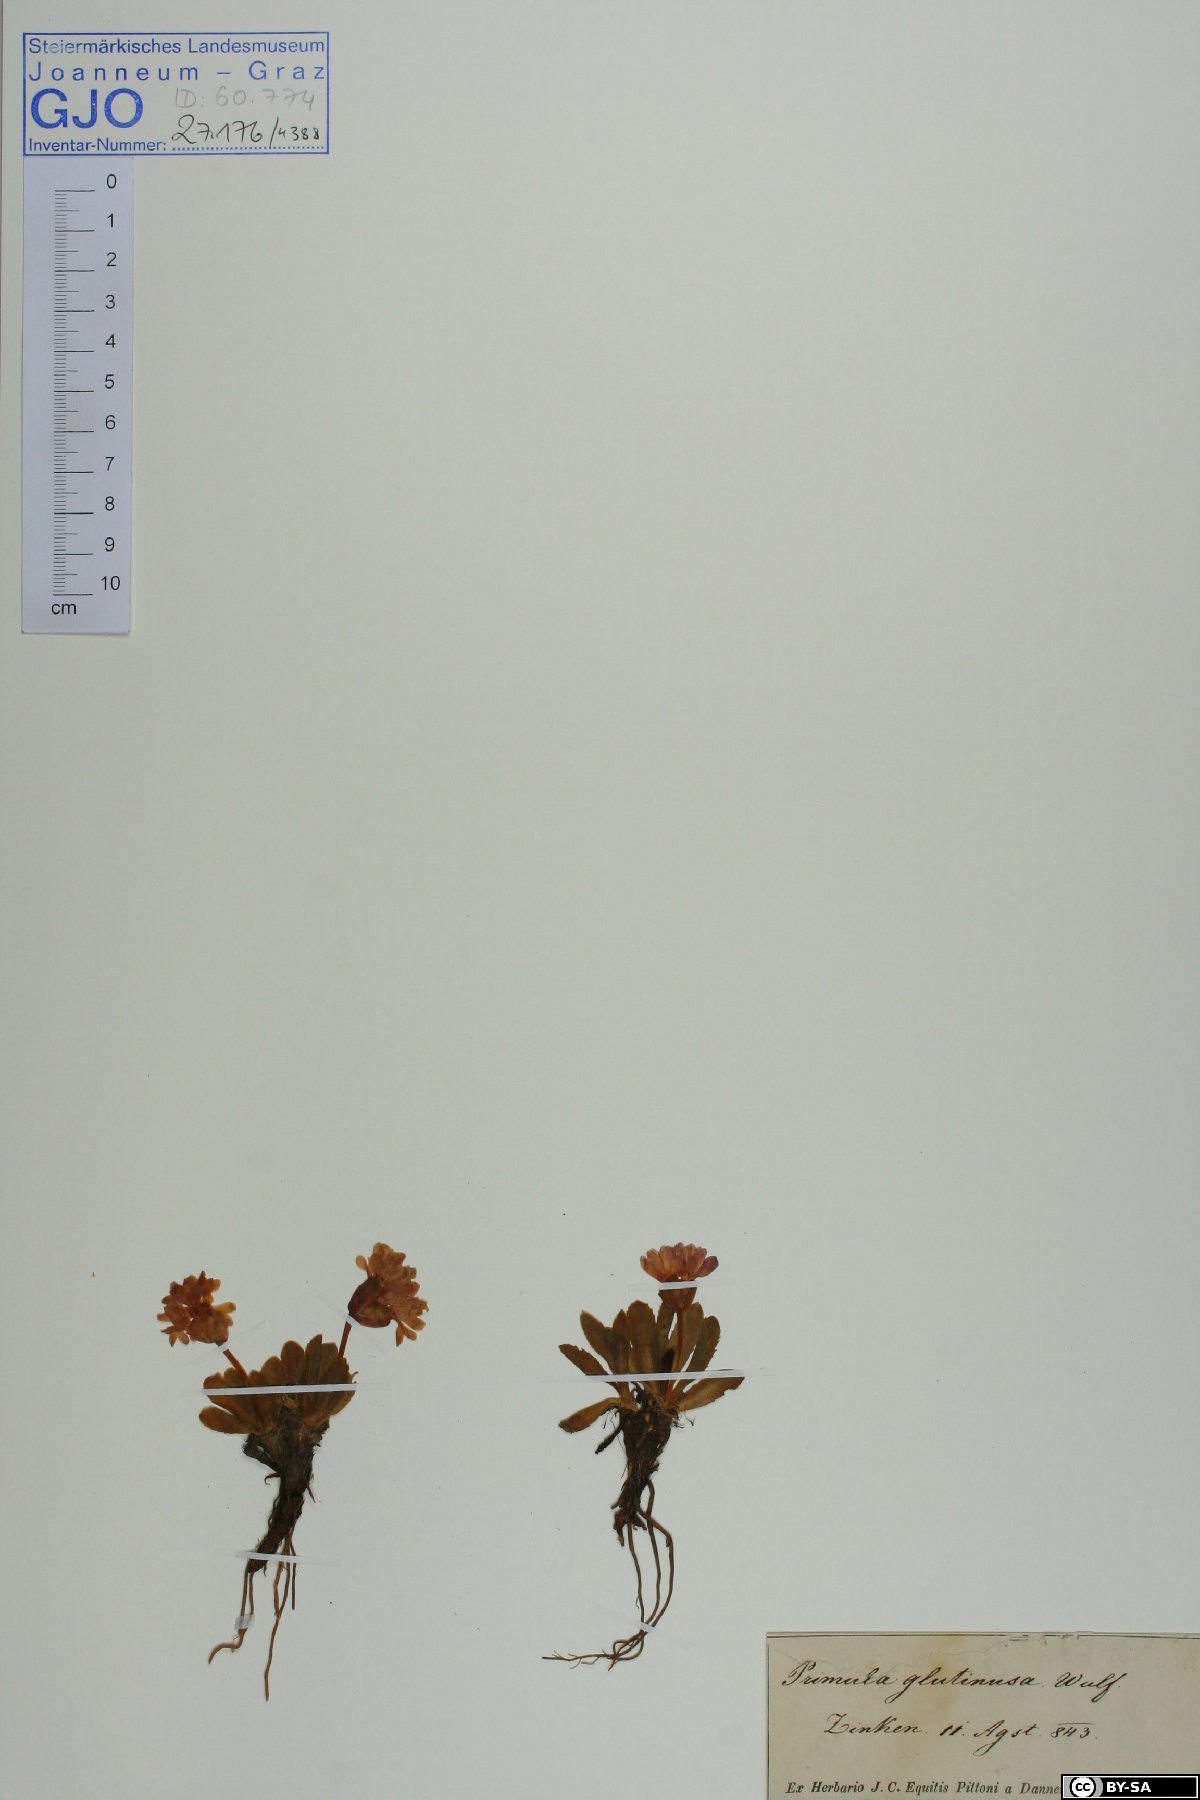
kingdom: Plantae
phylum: Tracheophyta
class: Magnoliopsida
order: Ericales
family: Primulaceae
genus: Primula
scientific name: Primula glutinosa
